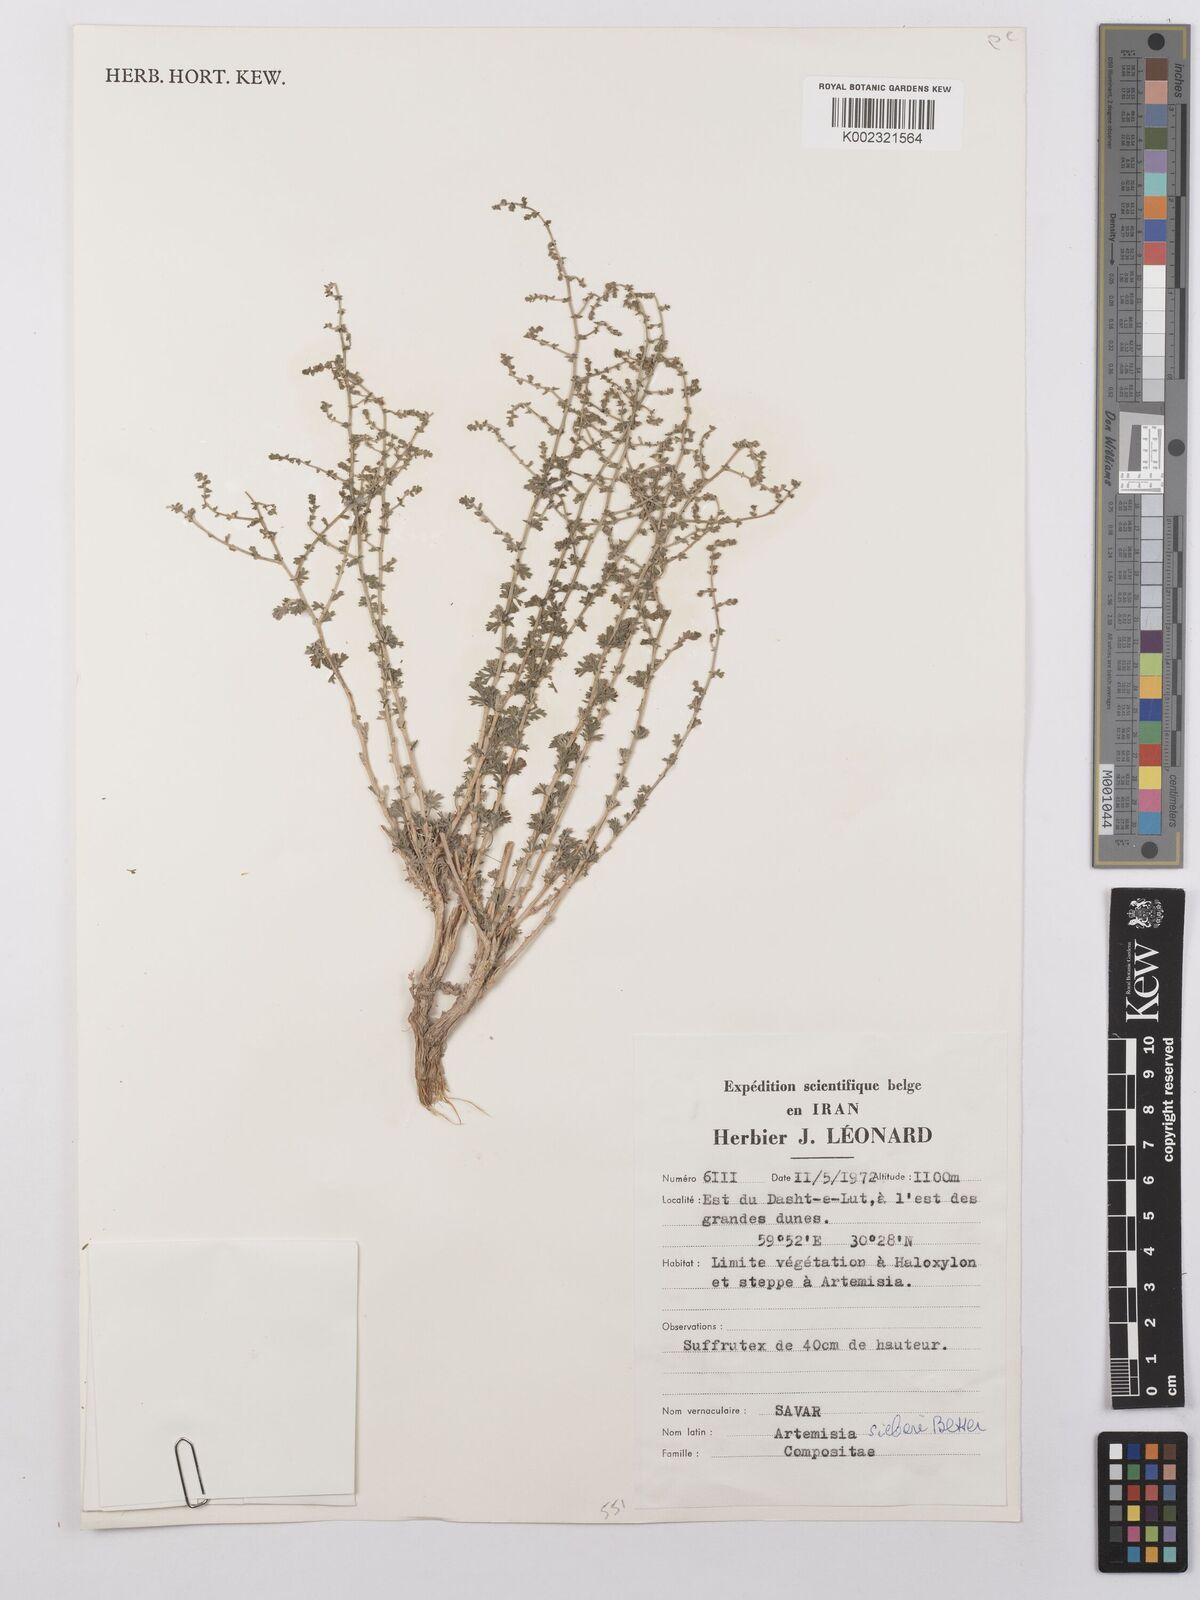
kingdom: Plantae
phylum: Tracheophyta
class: Magnoliopsida
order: Asterales
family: Asteraceae
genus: Artemisia
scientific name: Artemisia sieberi
